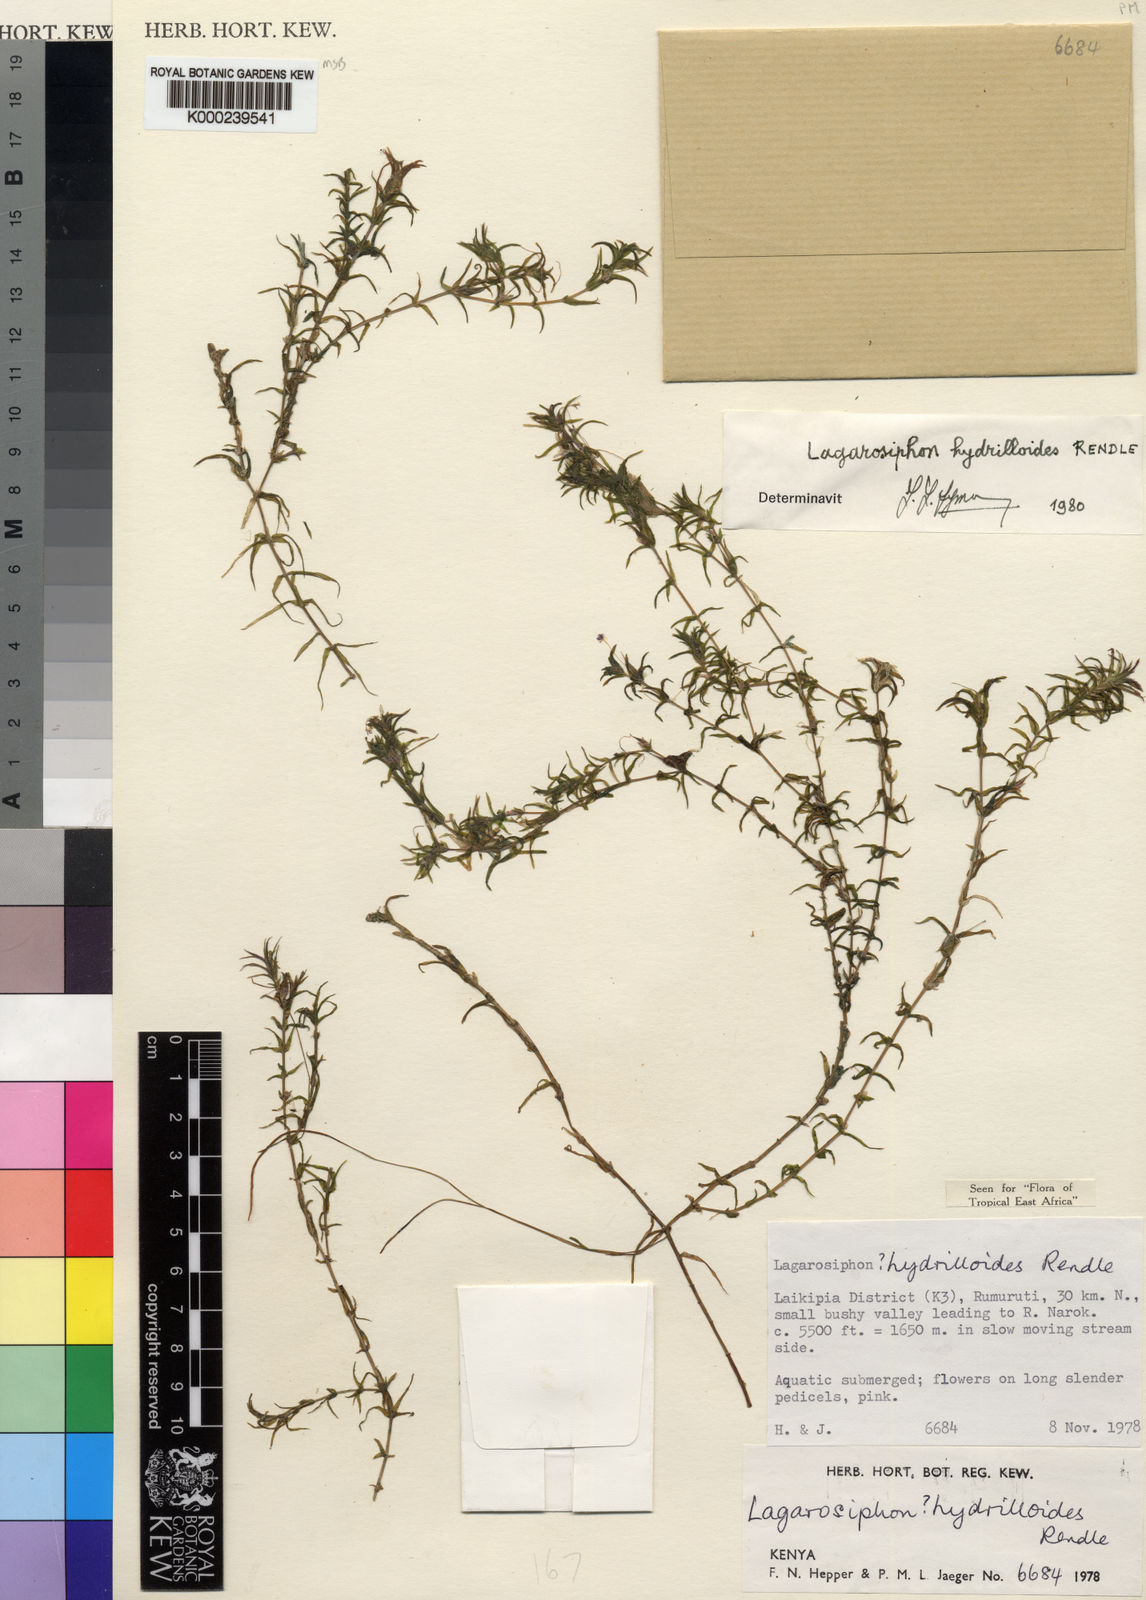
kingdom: Plantae
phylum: Tracheophyta
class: Liliopsida
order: Alismatales
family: Hydrocharitaceae
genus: Lagarosiphon
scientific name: Lagarosiphon hydrilloides
